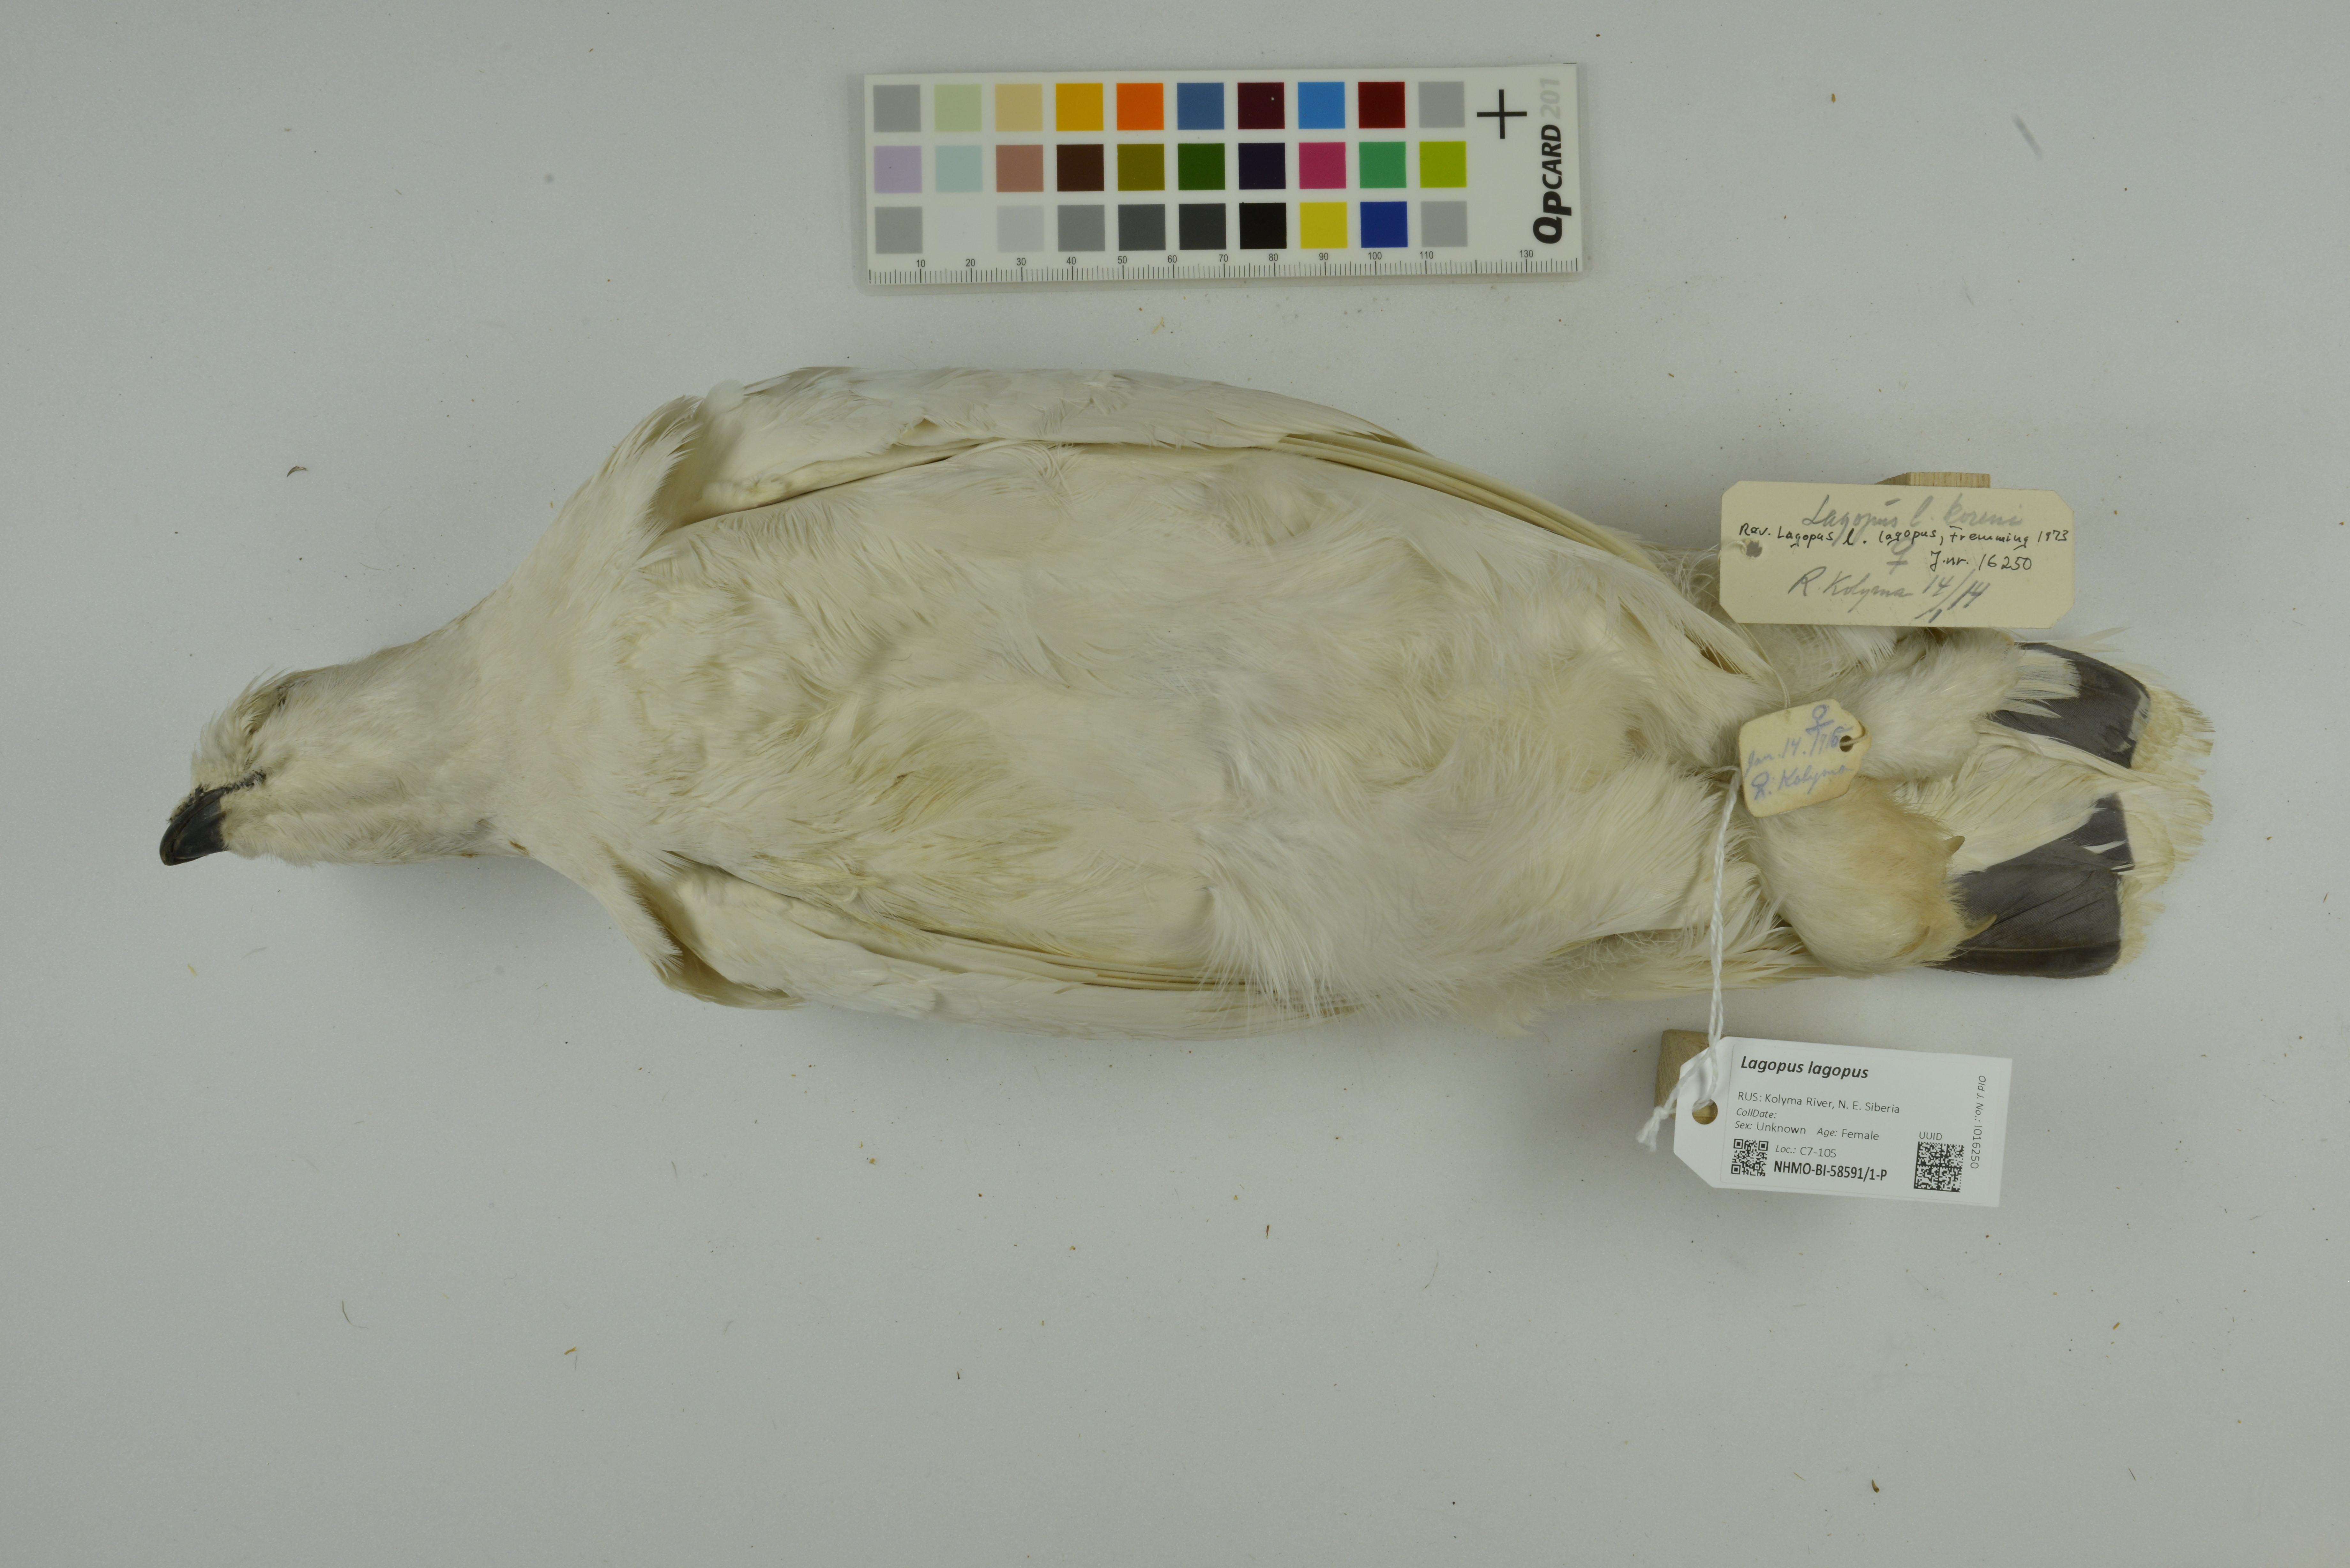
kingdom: Animalia
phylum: Chordata
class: Aves
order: Galliformes
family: Phasianidae
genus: Lagopus
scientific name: Lagopus lagopus
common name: Willow ptarmigan
